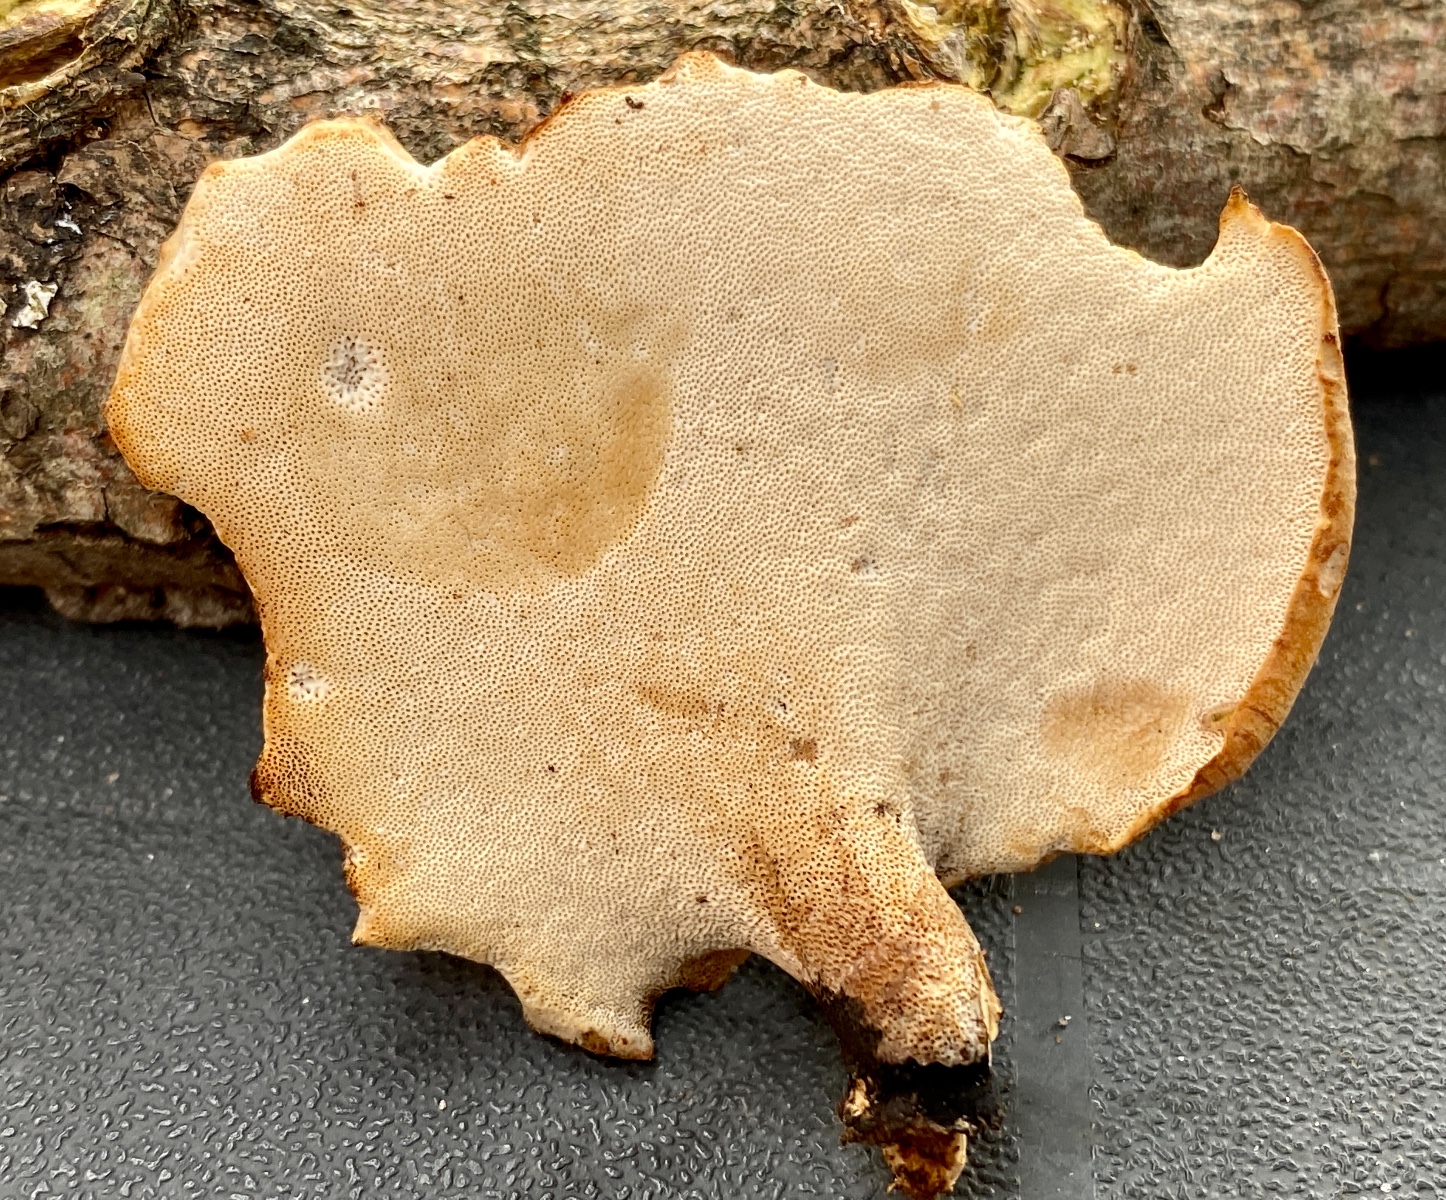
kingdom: Fungi
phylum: Basidiomycota
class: Agaricomycetes
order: Polyporales
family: Polyporaceae
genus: Cerioporus
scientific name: Cerioporus varius
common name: foranderlig stilkporesvamp
